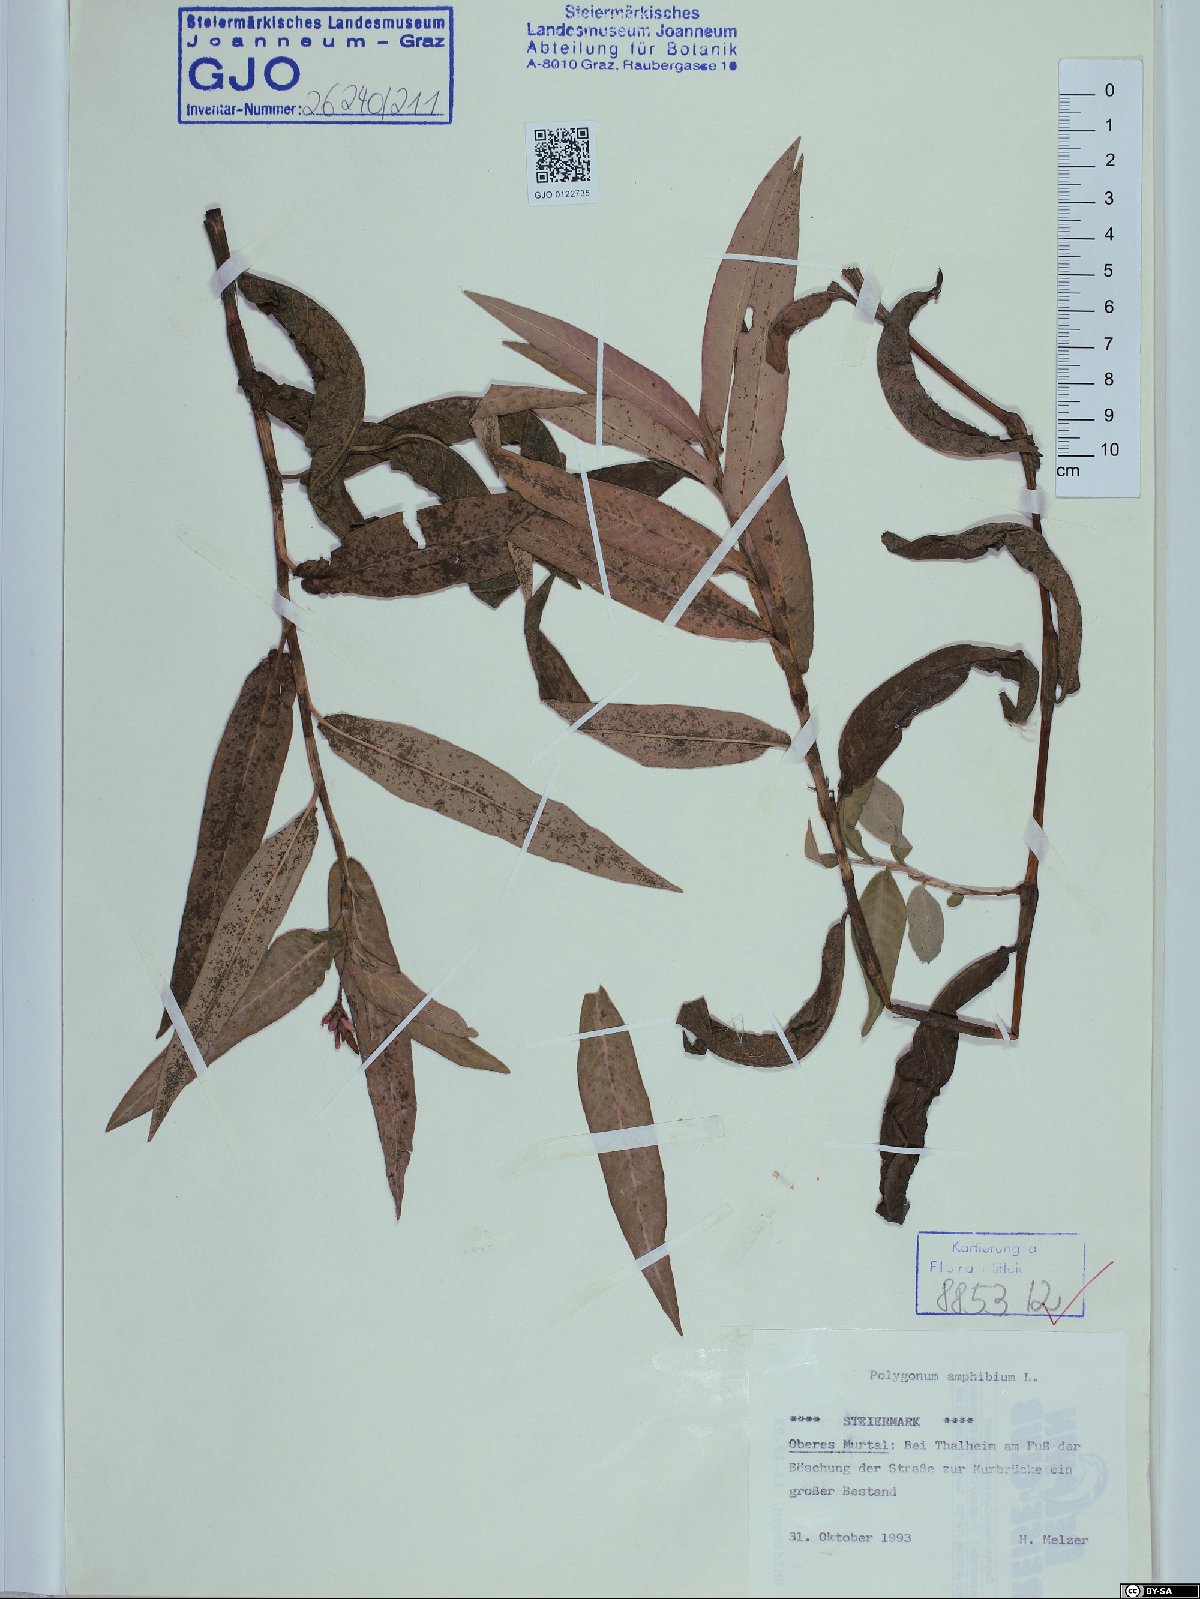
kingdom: Plantae
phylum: Tracheophyta
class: Magnoliopsida
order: Caryophyllales
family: Polygonaceae
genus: Persicaria
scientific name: Persicaria amphibia
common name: Amphibious bistort
